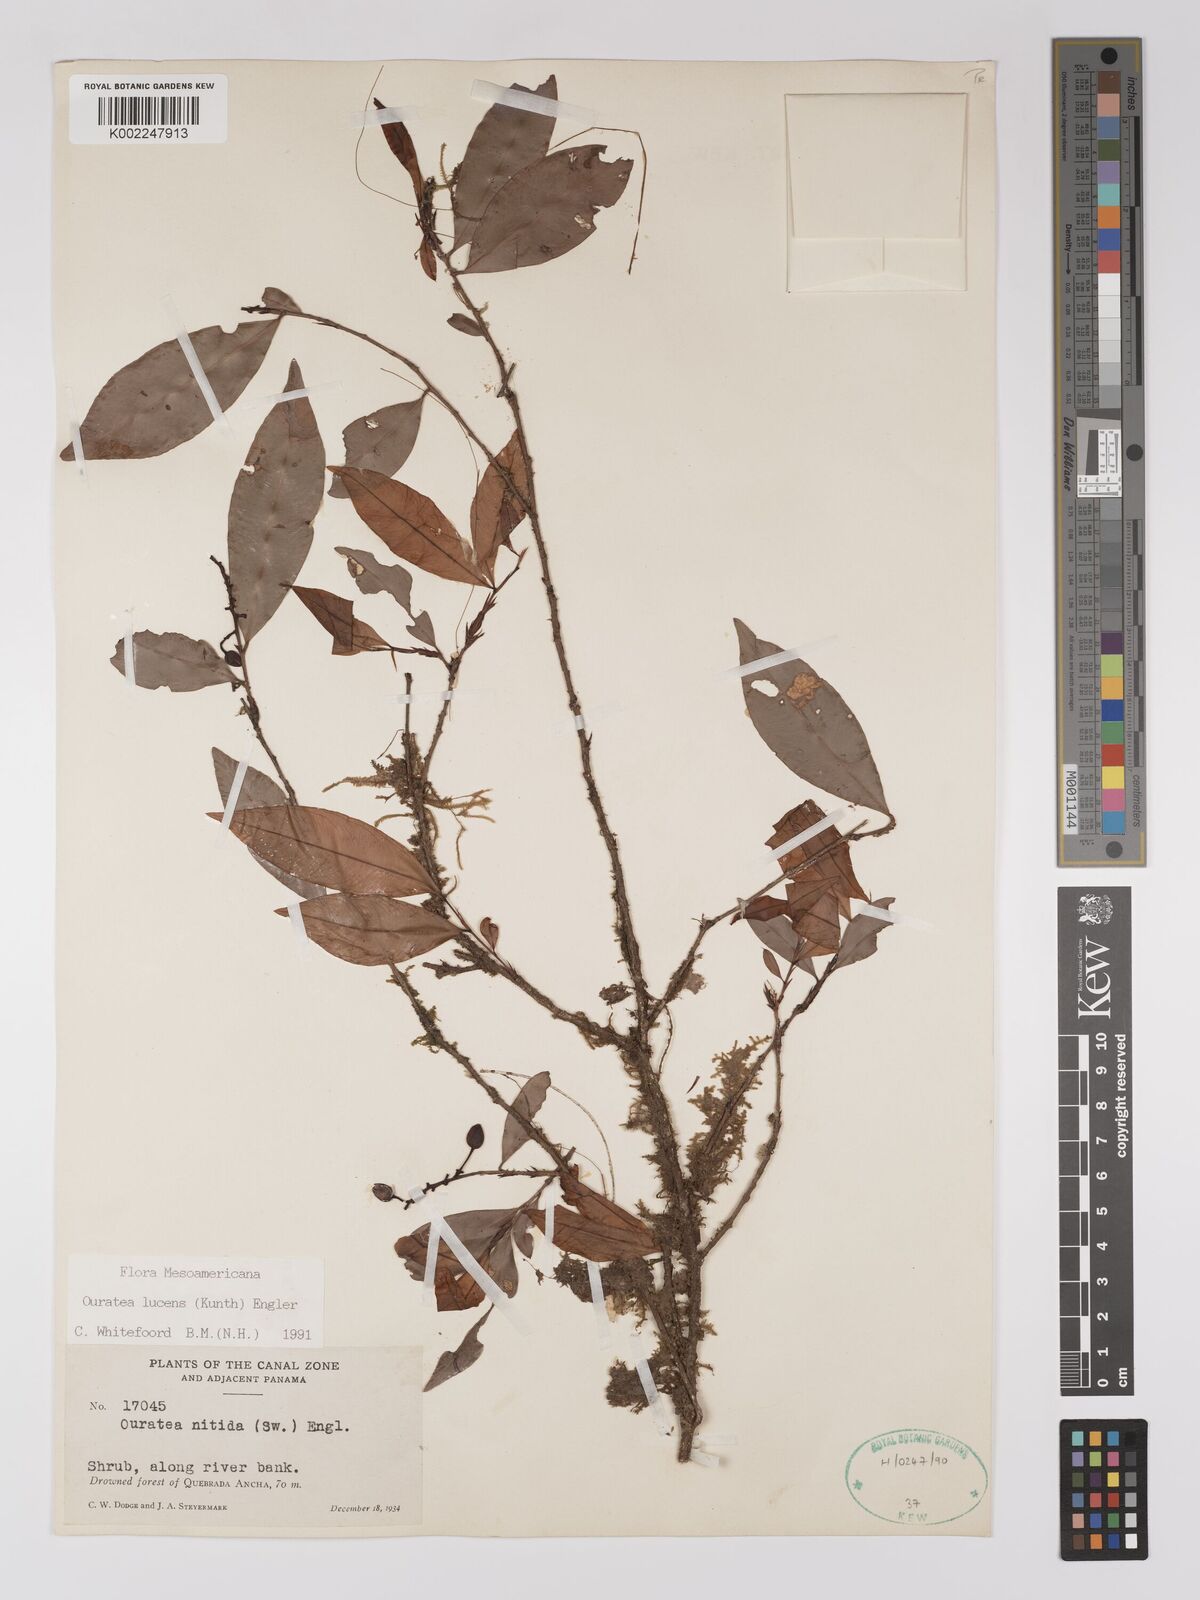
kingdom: Plantae
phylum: Tracheophyta
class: Magnoliopsida
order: Malpighiales
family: Ochnaceae
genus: Ouratea
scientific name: Ouratea lucens
